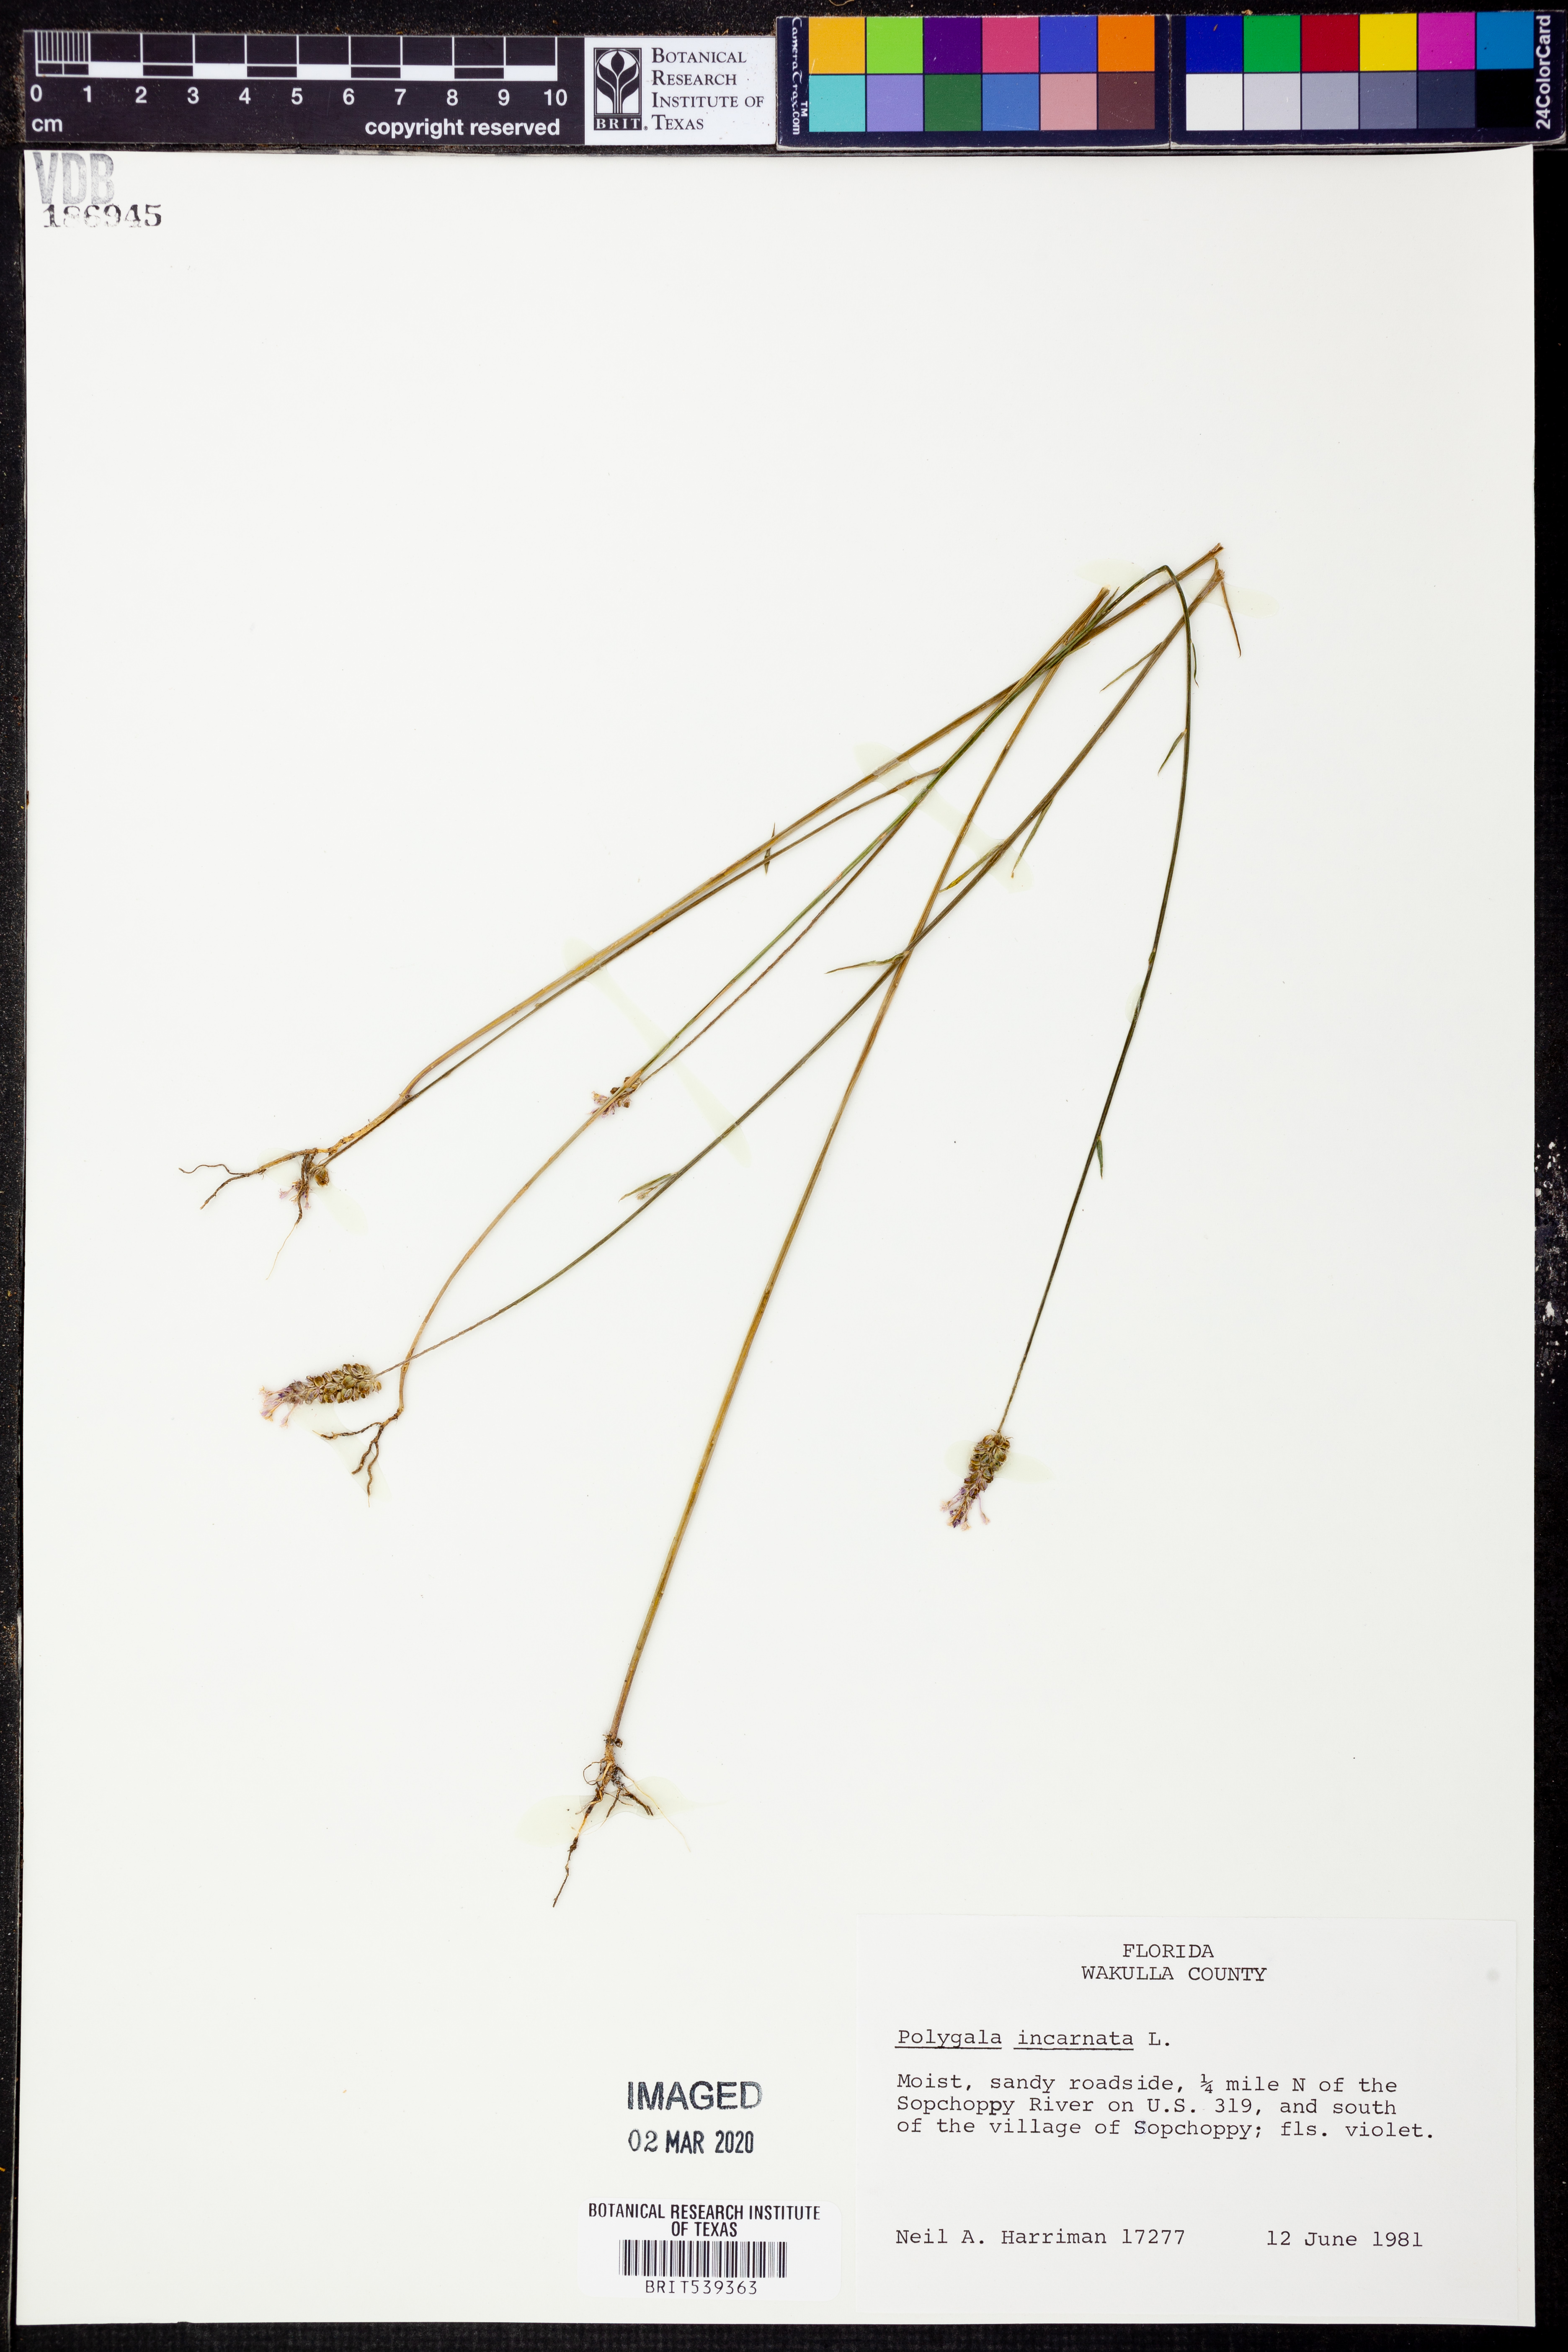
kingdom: Plantae
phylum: Tracheophyta
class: Magnoliopsida
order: Fabales
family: Polygalaceae
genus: Polygala
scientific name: Polygala incarnata
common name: Pink milkwort
